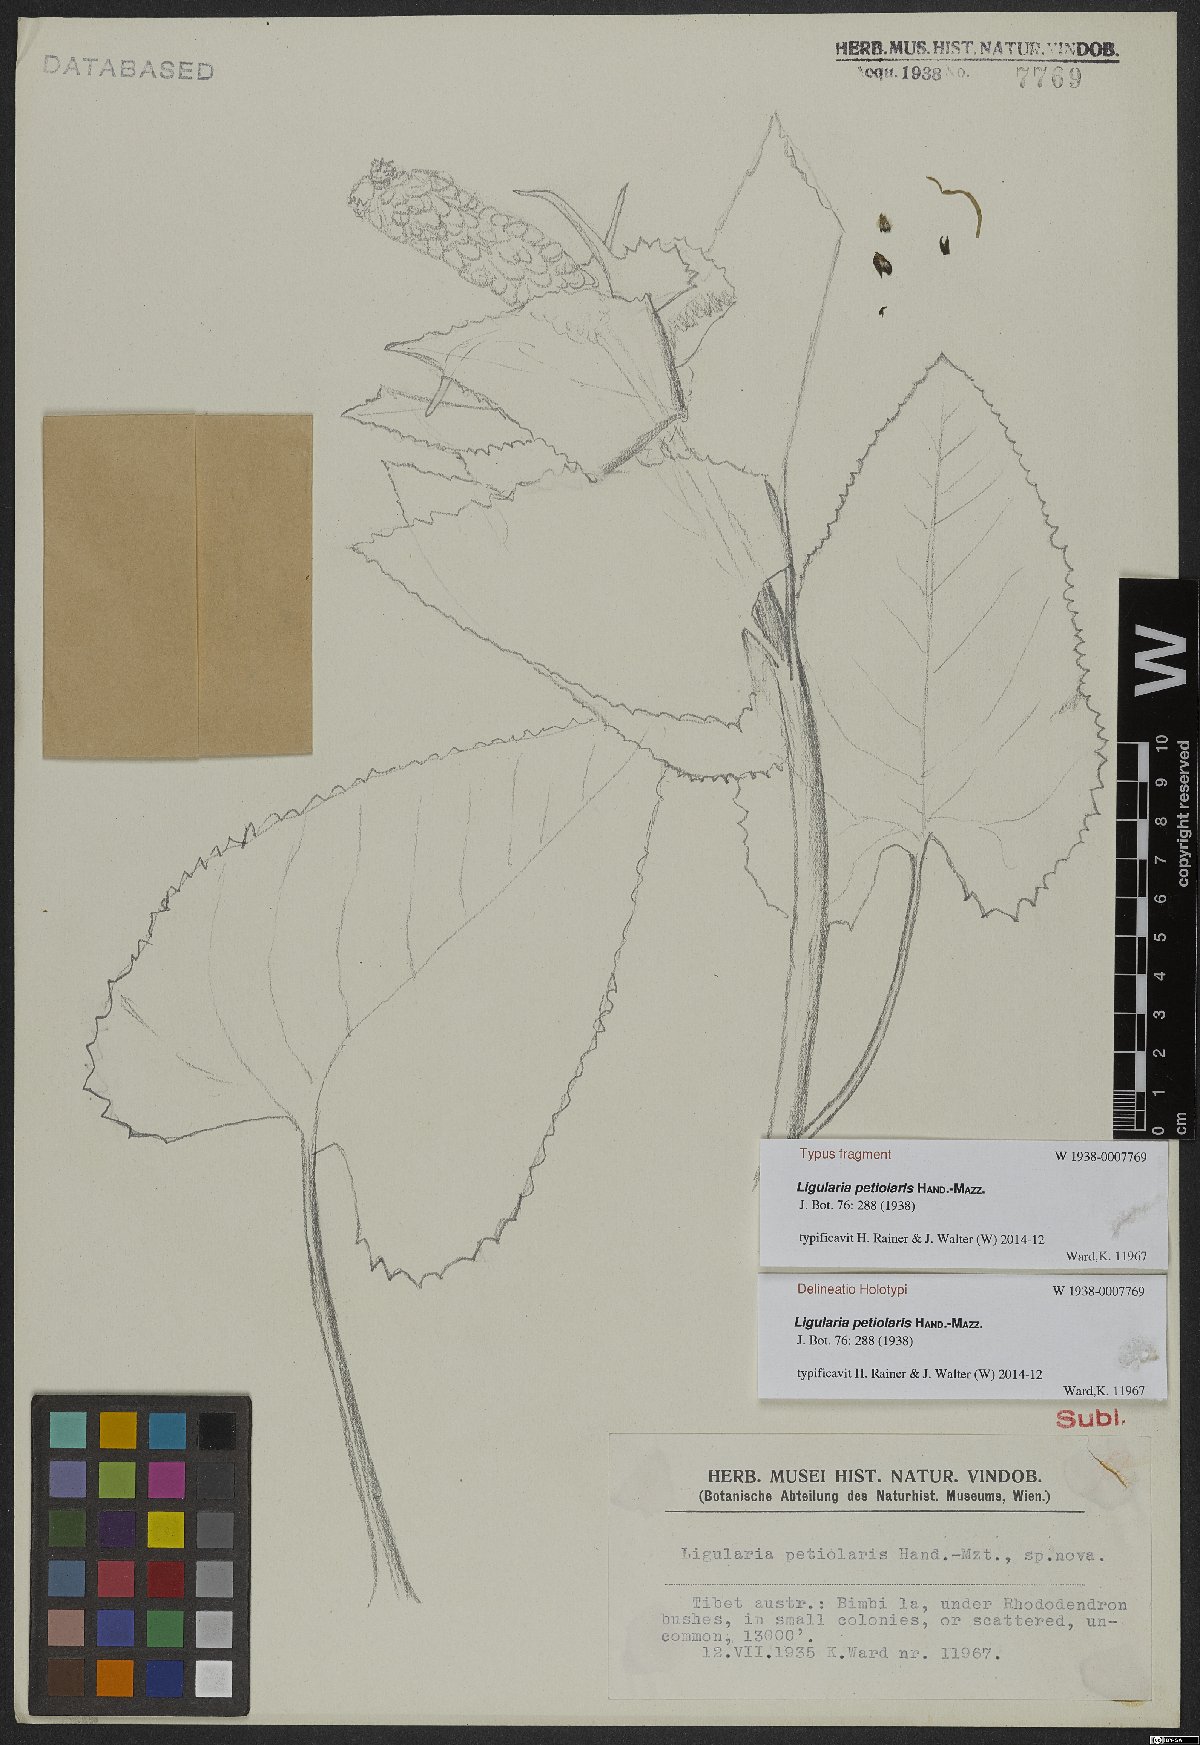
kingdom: Plantae
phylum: Tracheophyta
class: Magnoliopsida
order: Asterales
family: Asteraceae
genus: Ligularia
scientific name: Ligularia petiolaris
